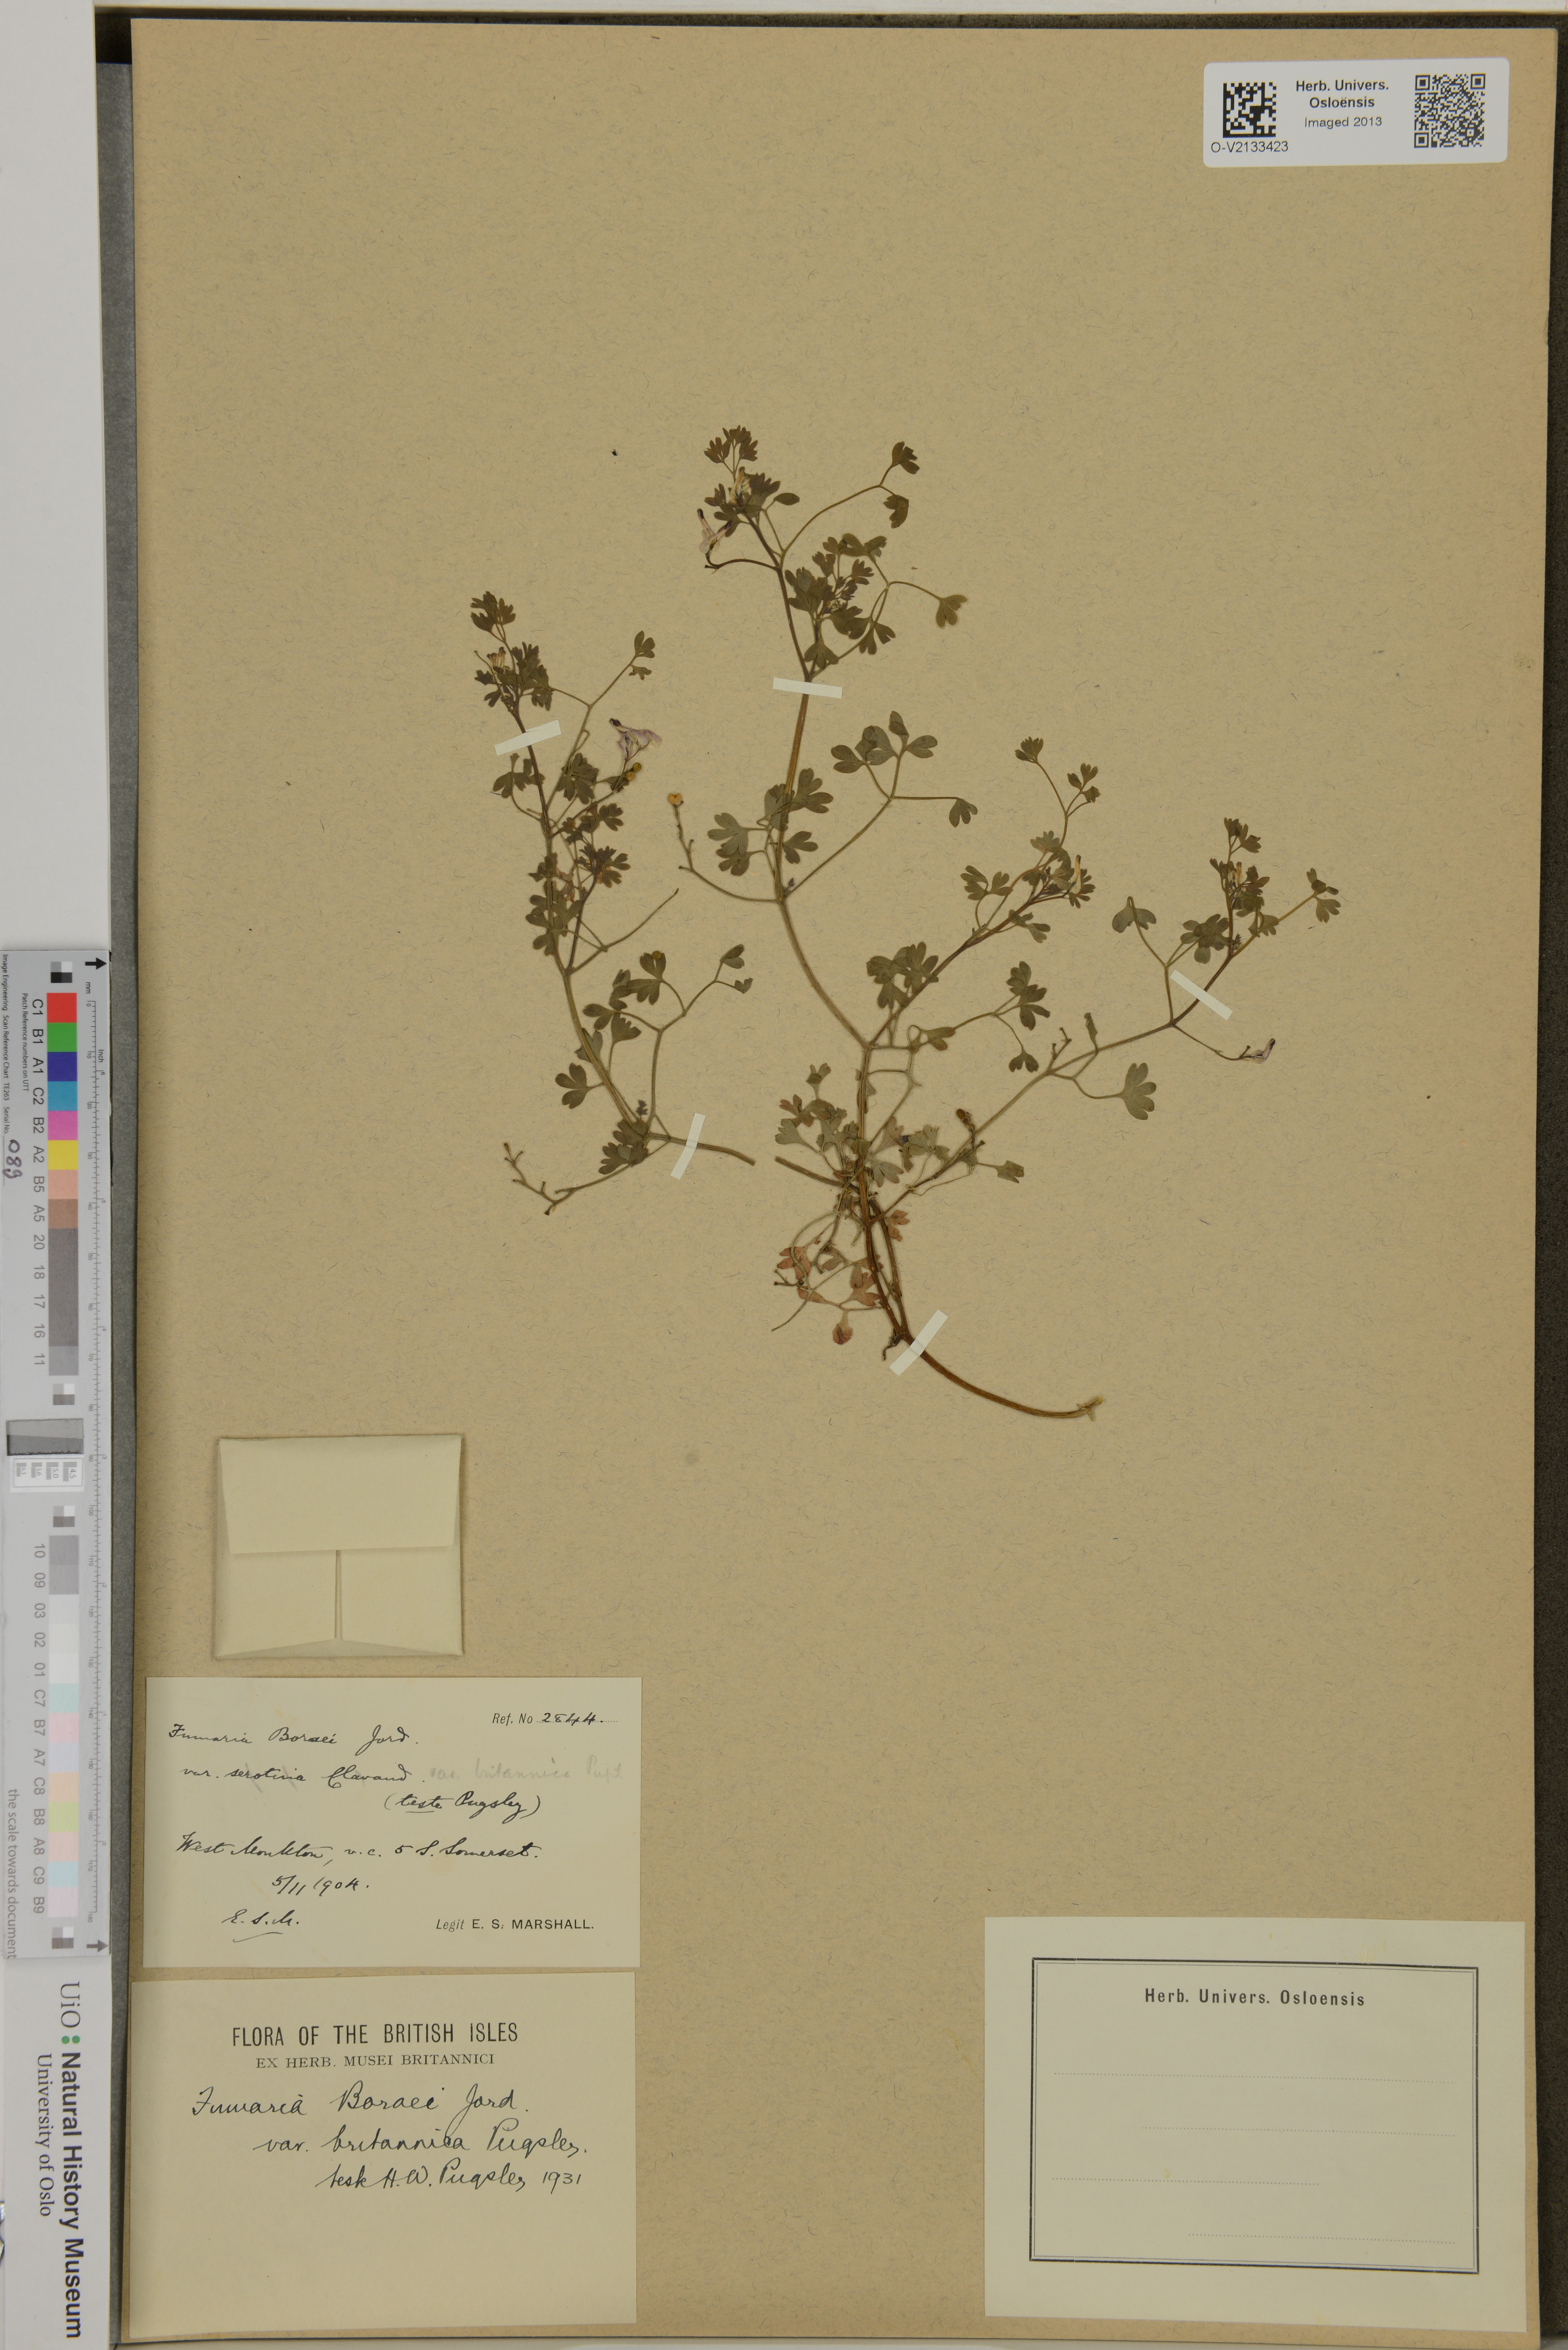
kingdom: Plantae
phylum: Tracheophyta
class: Magnoliopsida
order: Ranunculales
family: Papaveraceae
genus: Fumaria
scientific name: Fumaria muralis
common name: Common ramping-fumitory
